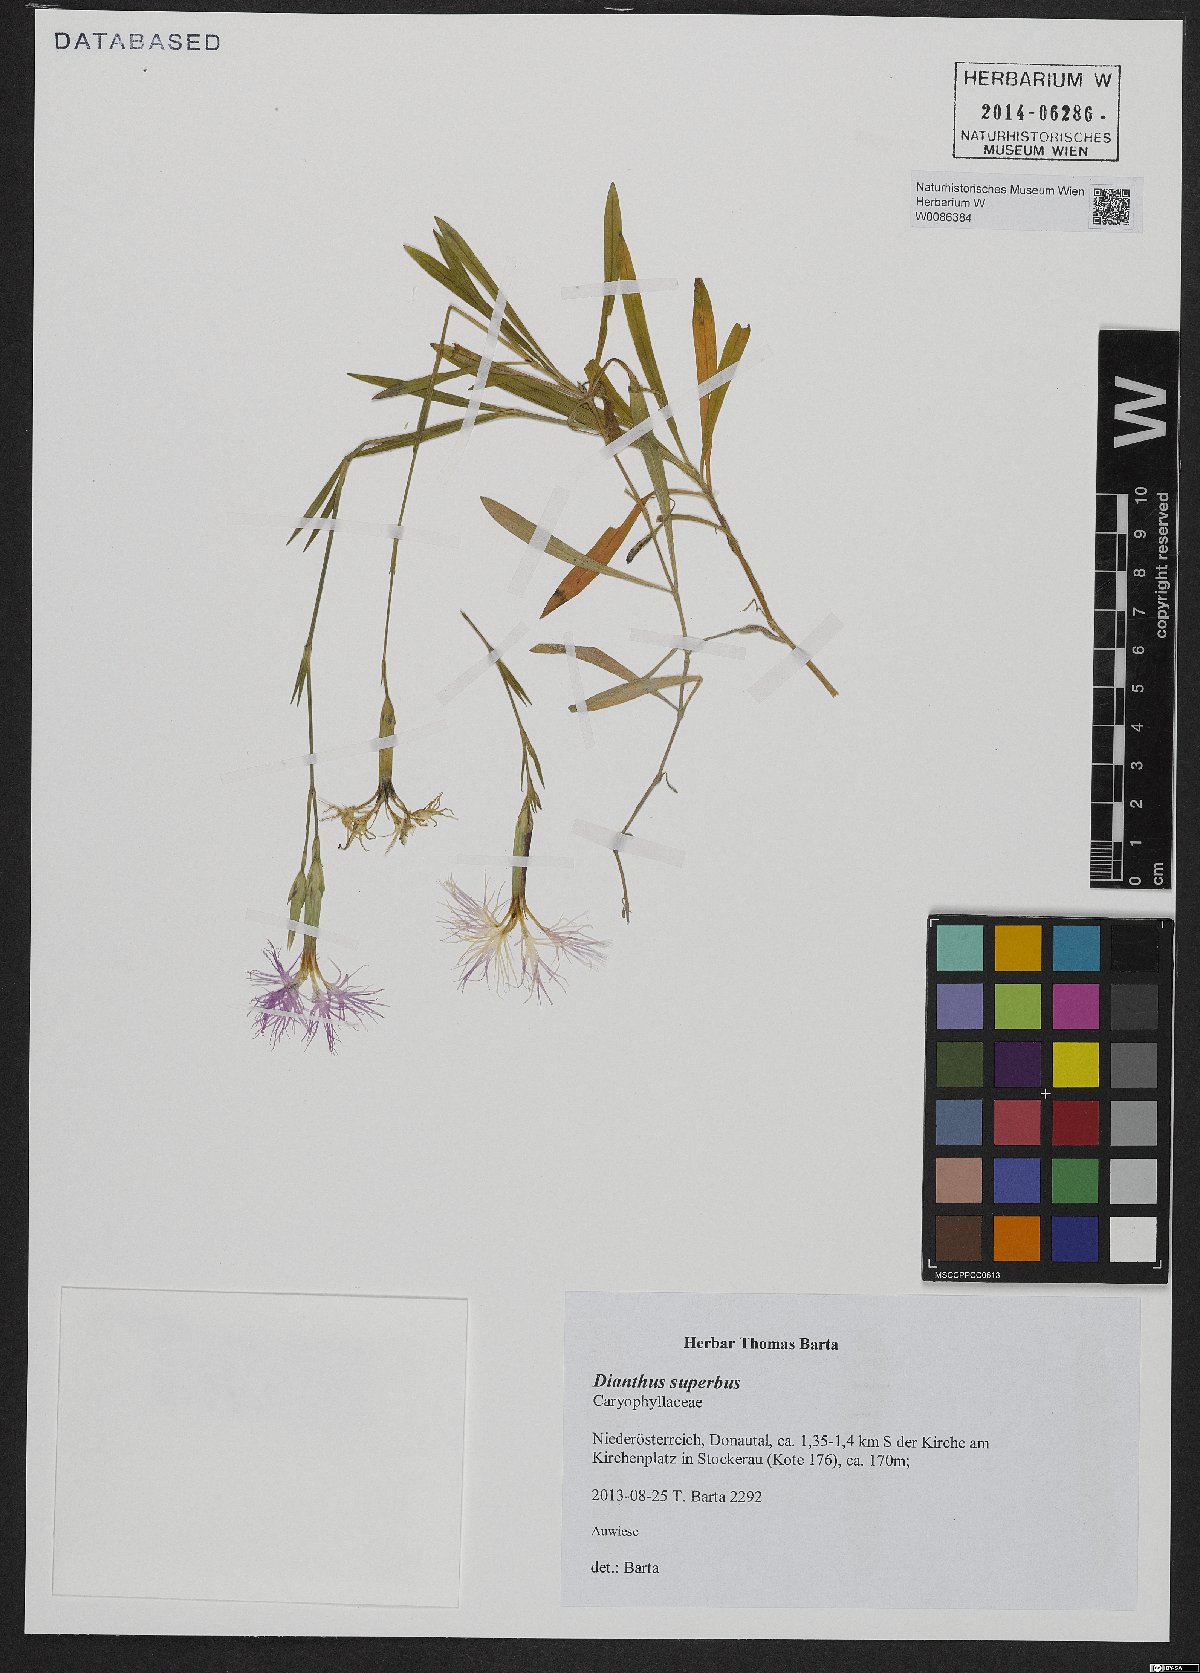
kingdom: Plantae
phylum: Tracheophyta
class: Magnoliopsida
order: Caryophyllales
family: Caryophyllaceae
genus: Dianthus
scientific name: Dianthus superbus
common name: Fringed pink
